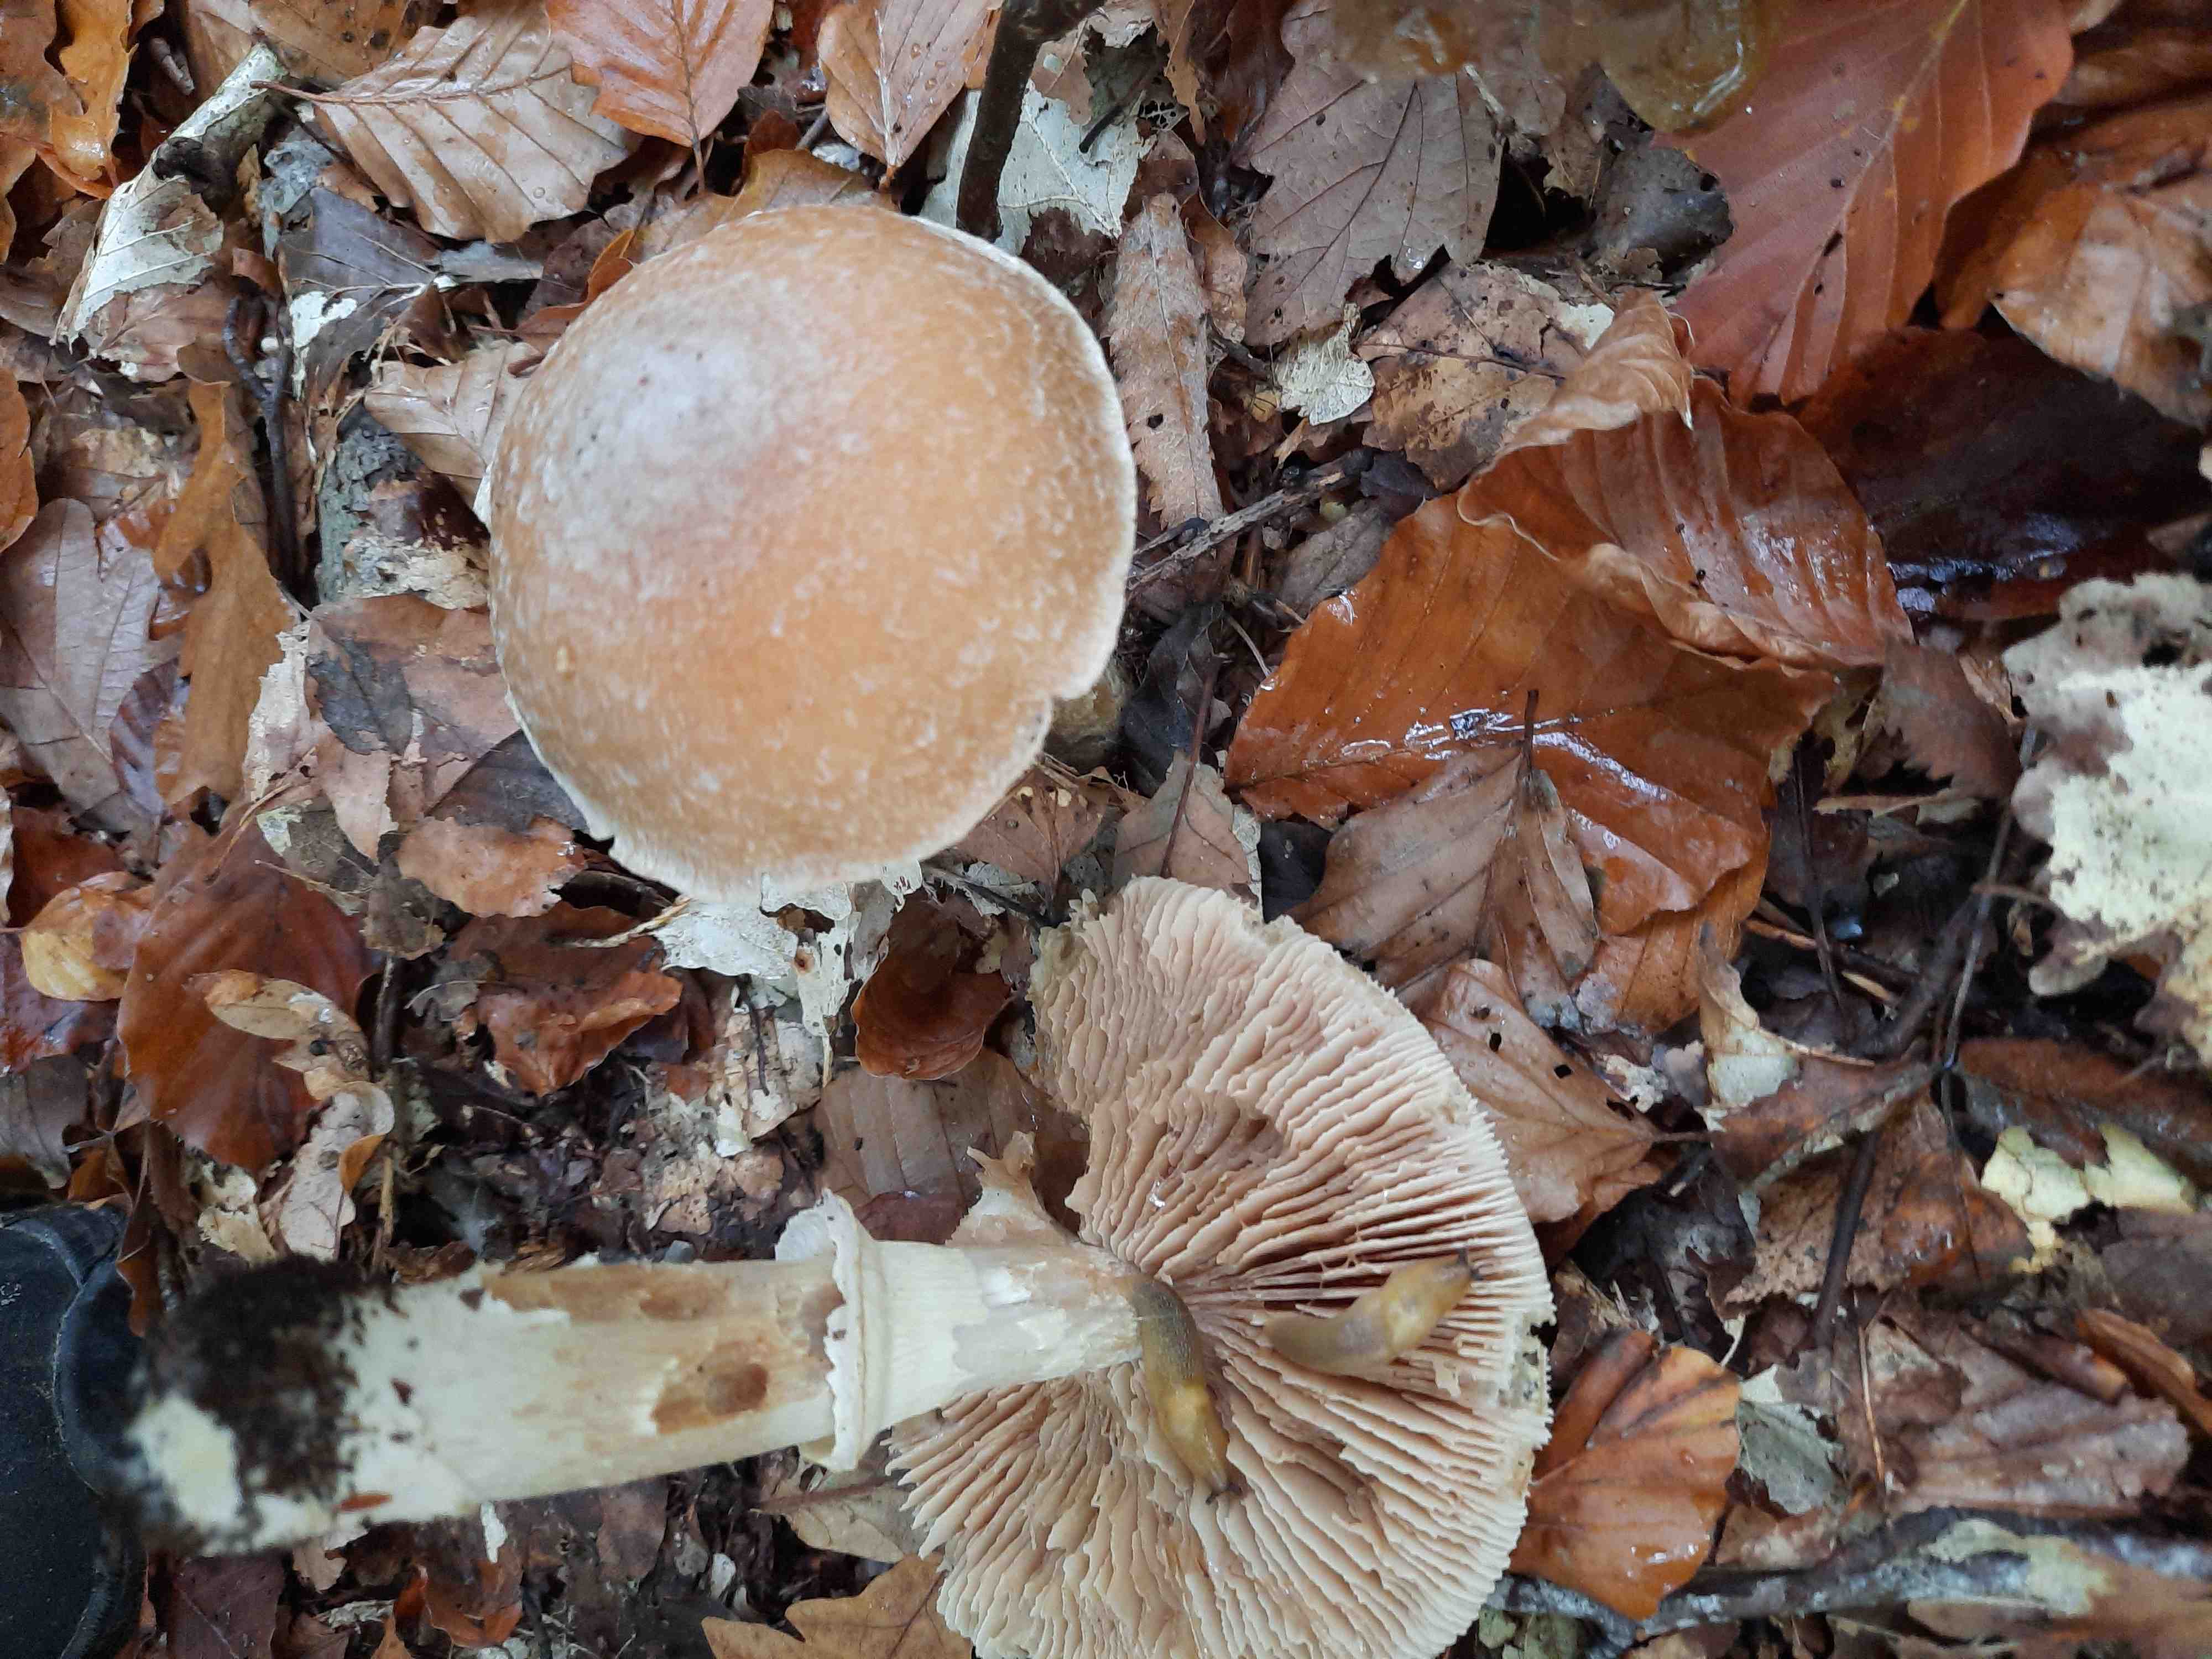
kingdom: Fungi
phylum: Basidiomycota
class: Agaricomycetes
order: Agaricales
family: Cortinariaceae
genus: Cortinarius
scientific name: Cortinarius caperatus
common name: klidhat
